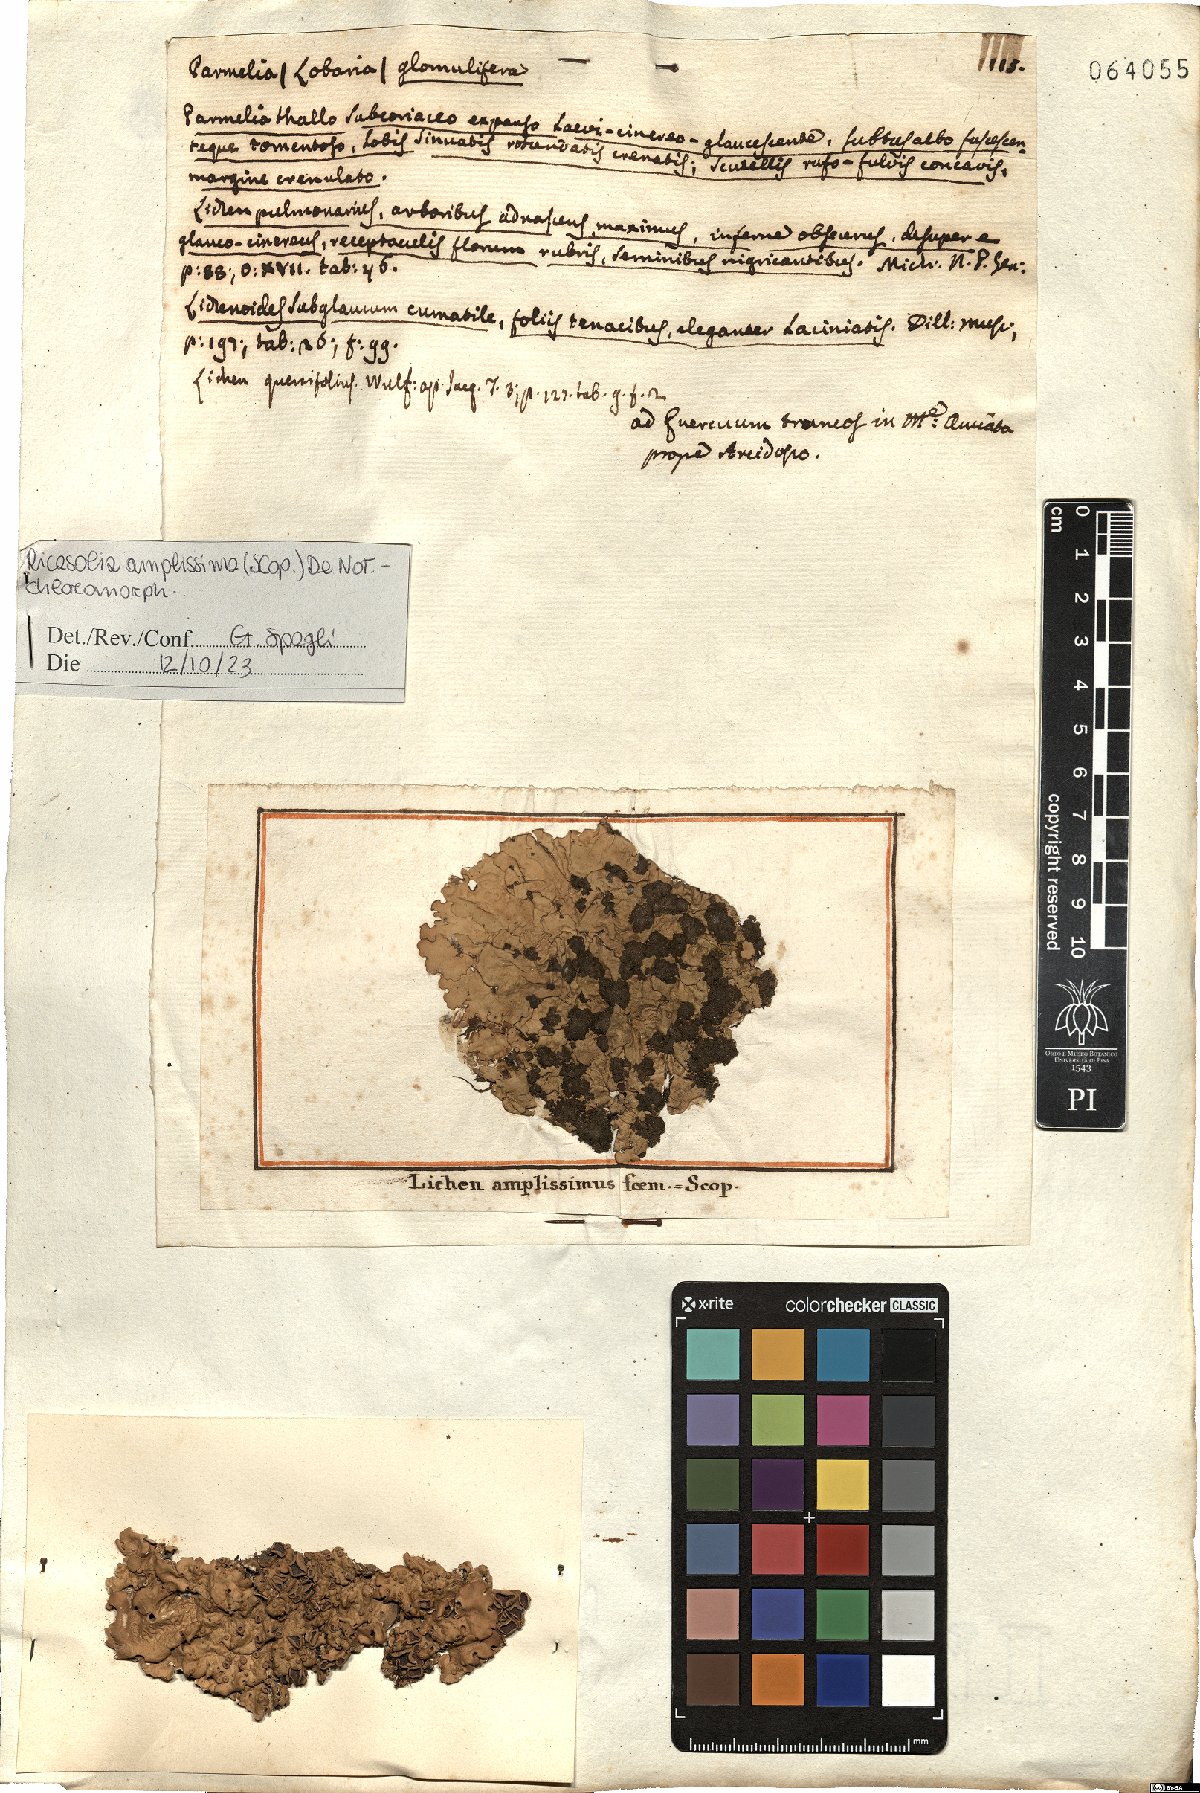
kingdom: Fungi
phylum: Ascomycota
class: Lecanoromycetes
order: Peltigerales
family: Lobariaceae
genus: Ricasolia
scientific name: Ricasolia amplissima
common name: Giant candlewax lichen
